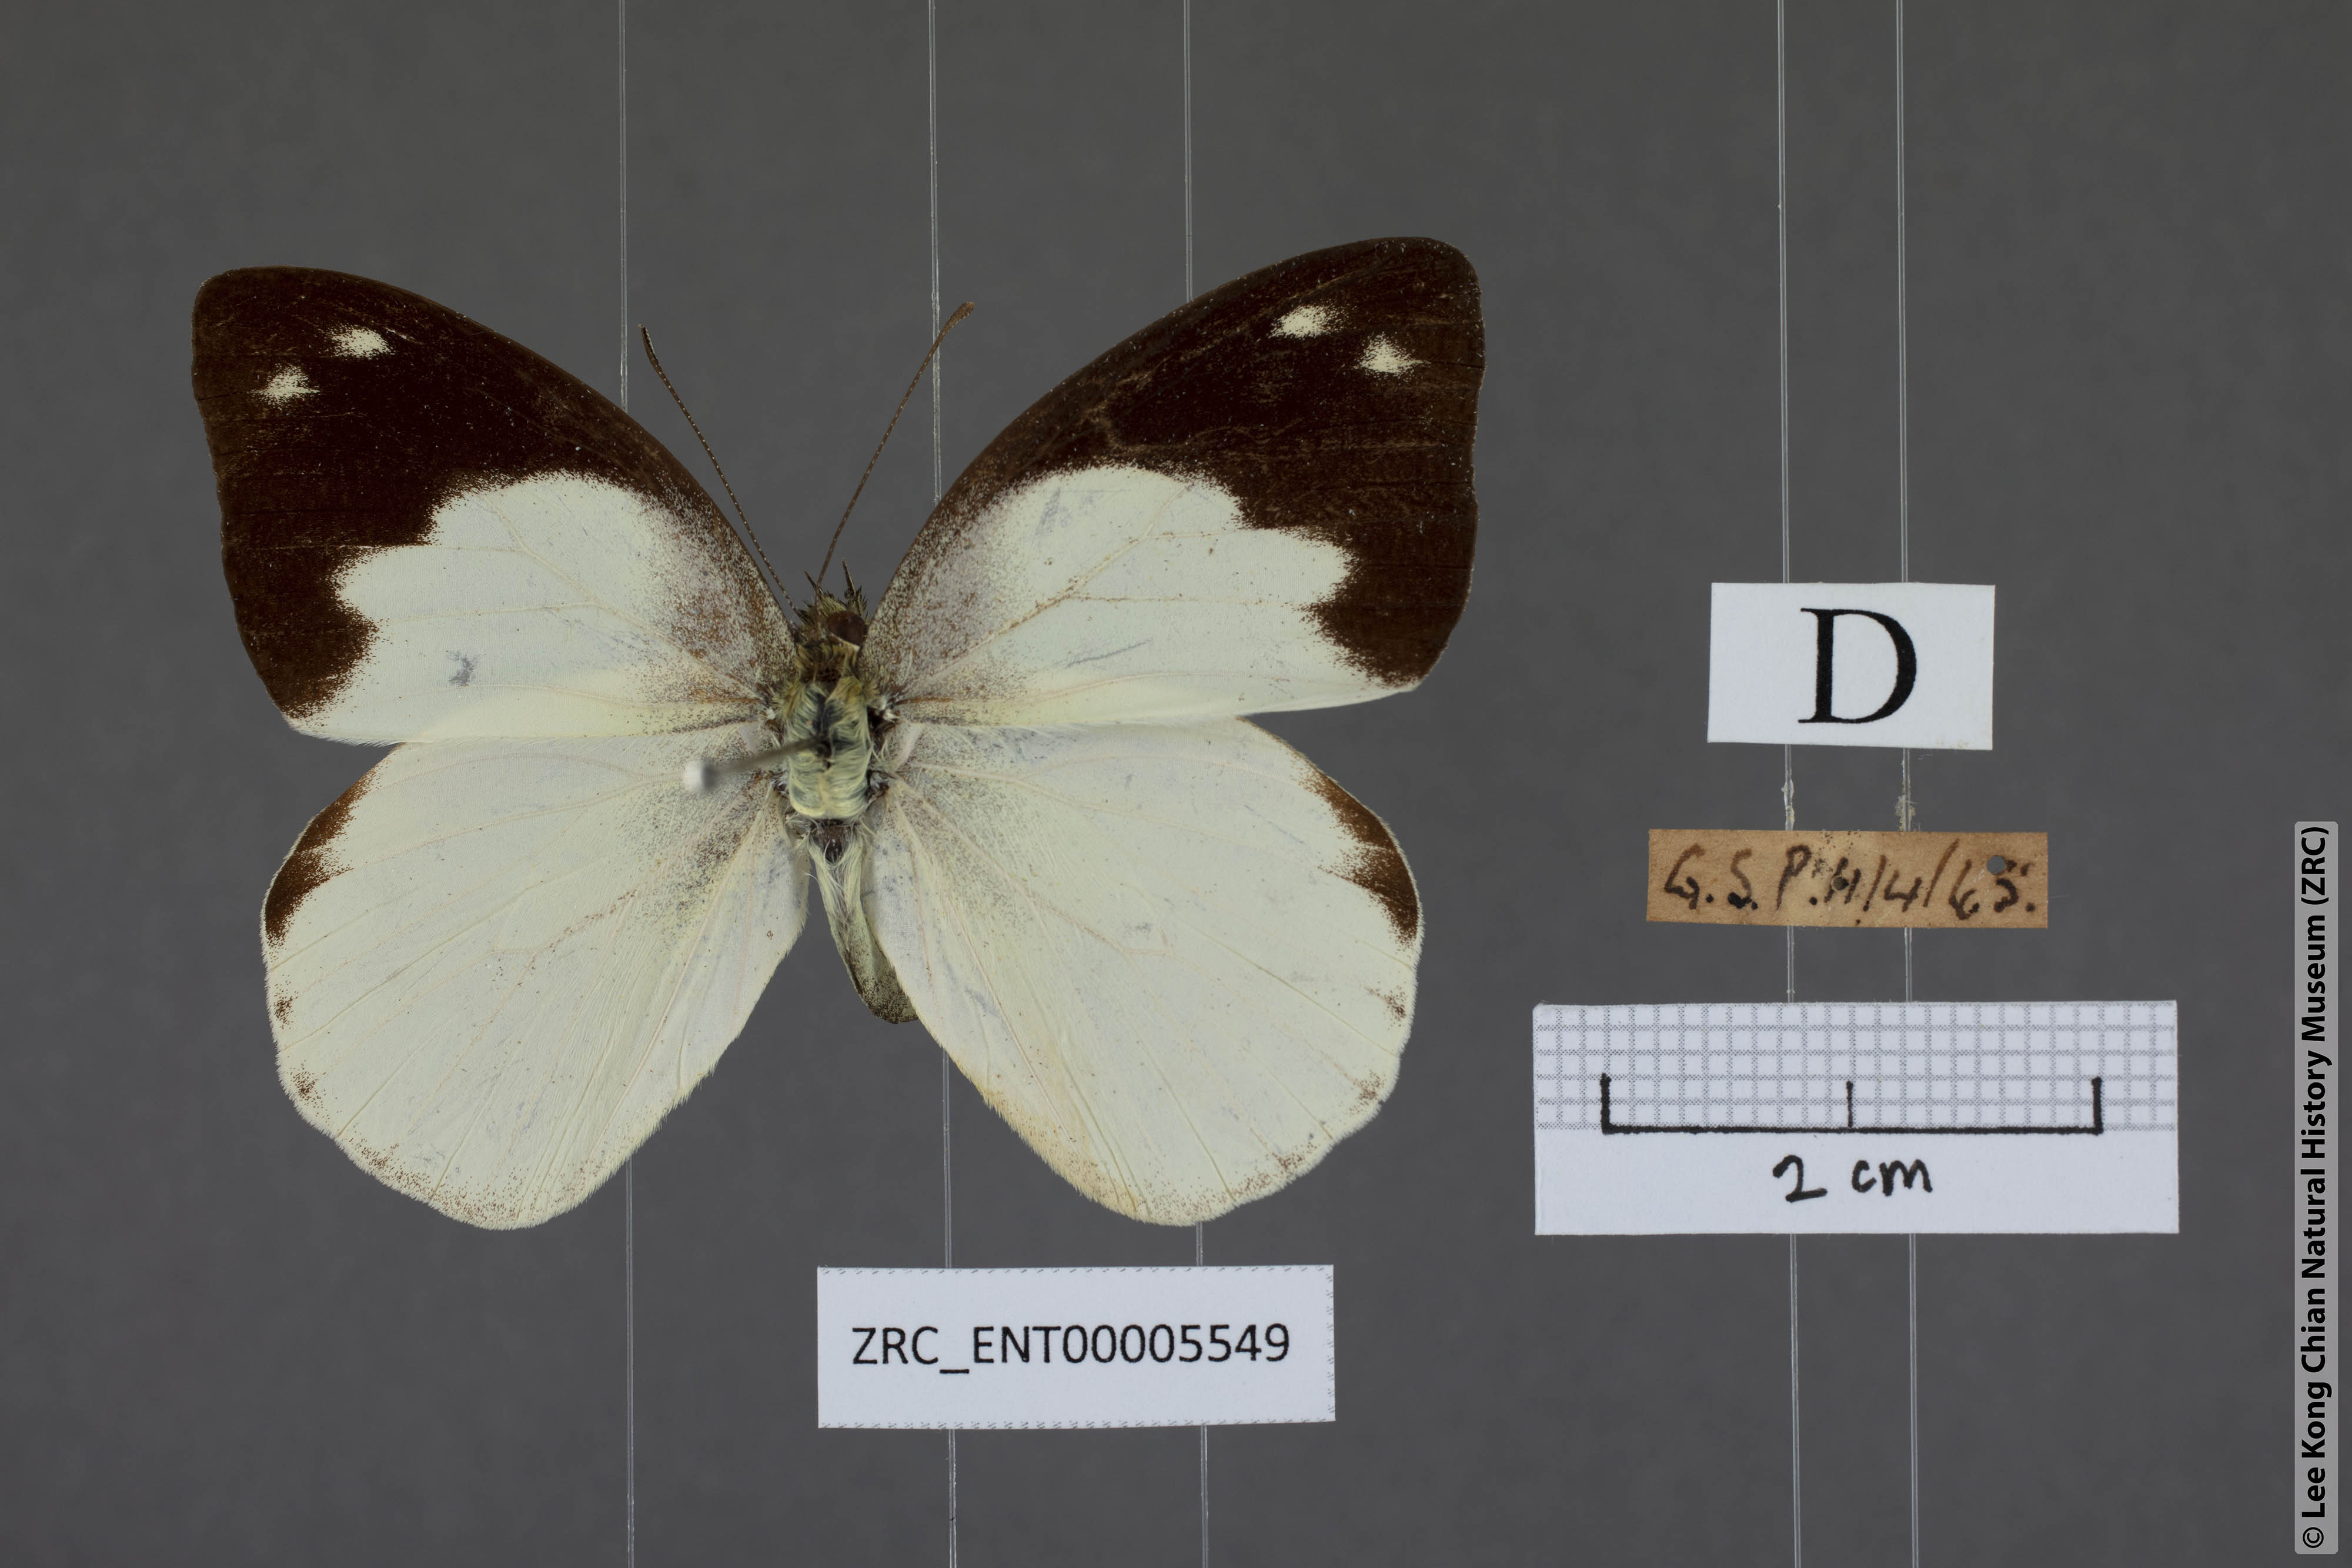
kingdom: Animalia
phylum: Arthropoda
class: Insecta
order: Lepidoptera
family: Pieridae
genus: Appias
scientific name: Appias indra
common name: Plain puffin
